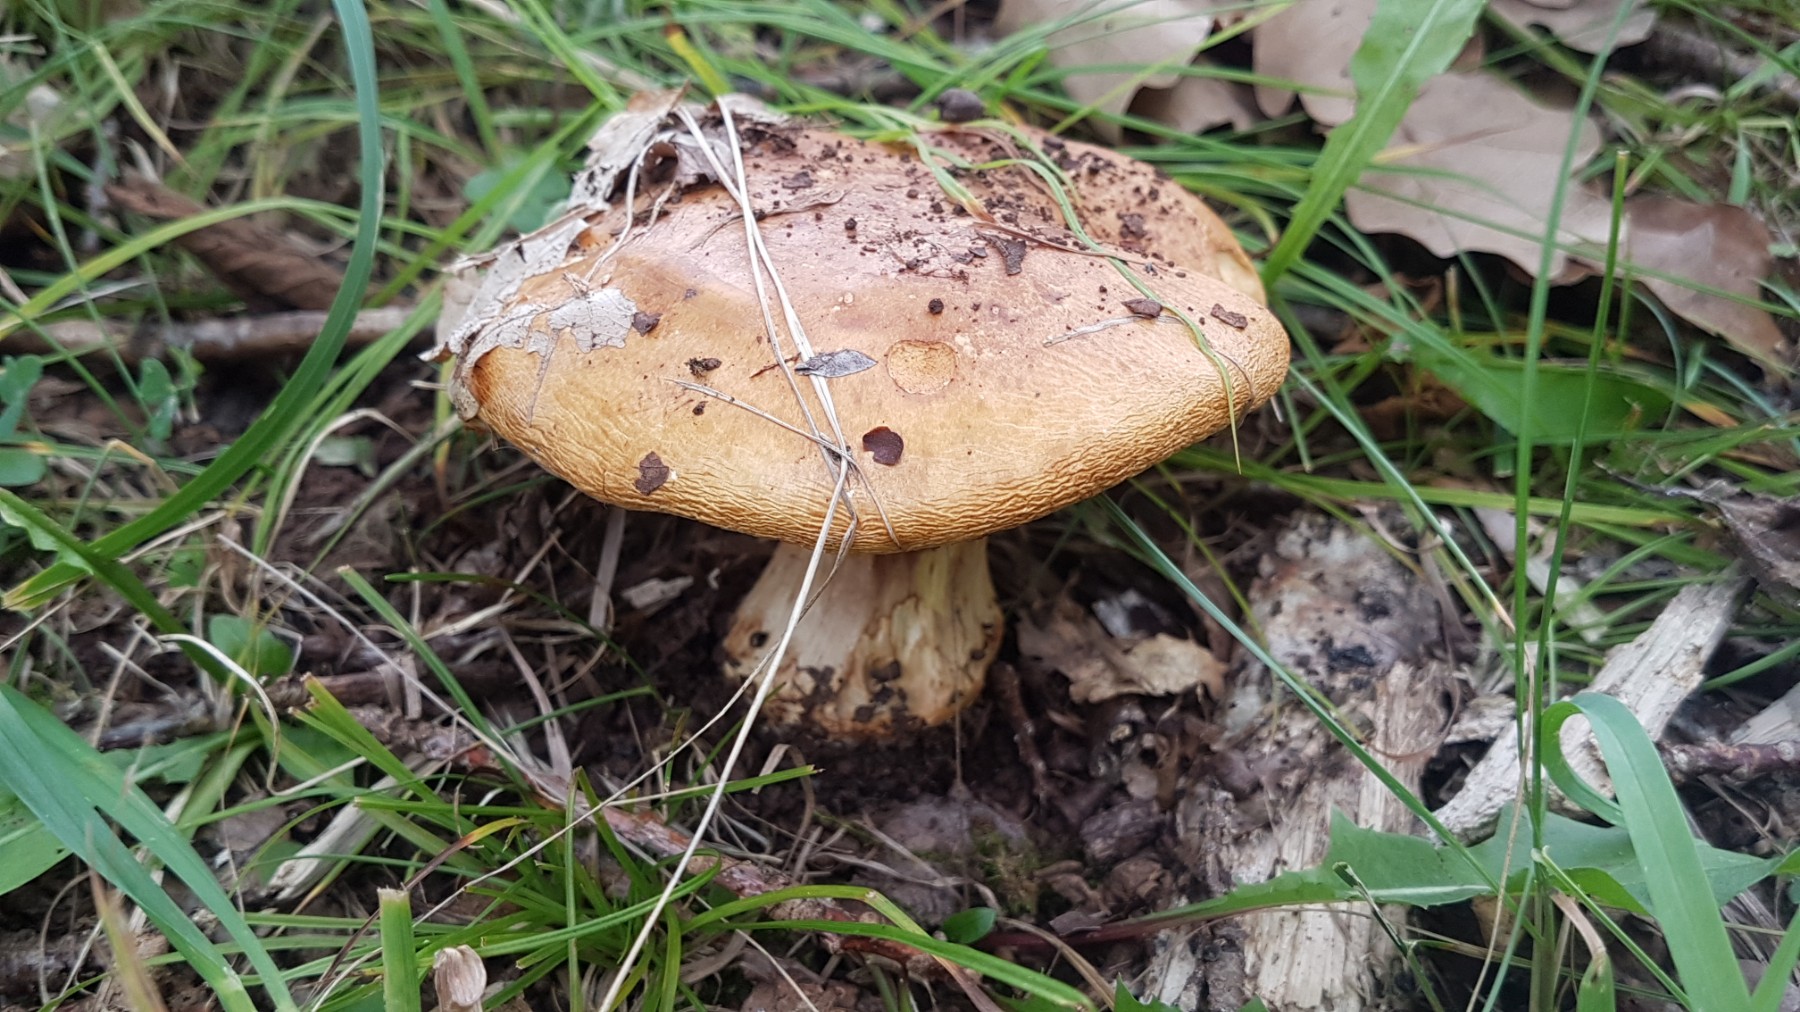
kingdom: Fungi
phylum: Basidiomycota
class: Agaricomycetes
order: Agaricales
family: Cortinariaceae
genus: Calonarius
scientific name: Calonarius olearioides
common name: safran-slørhat
